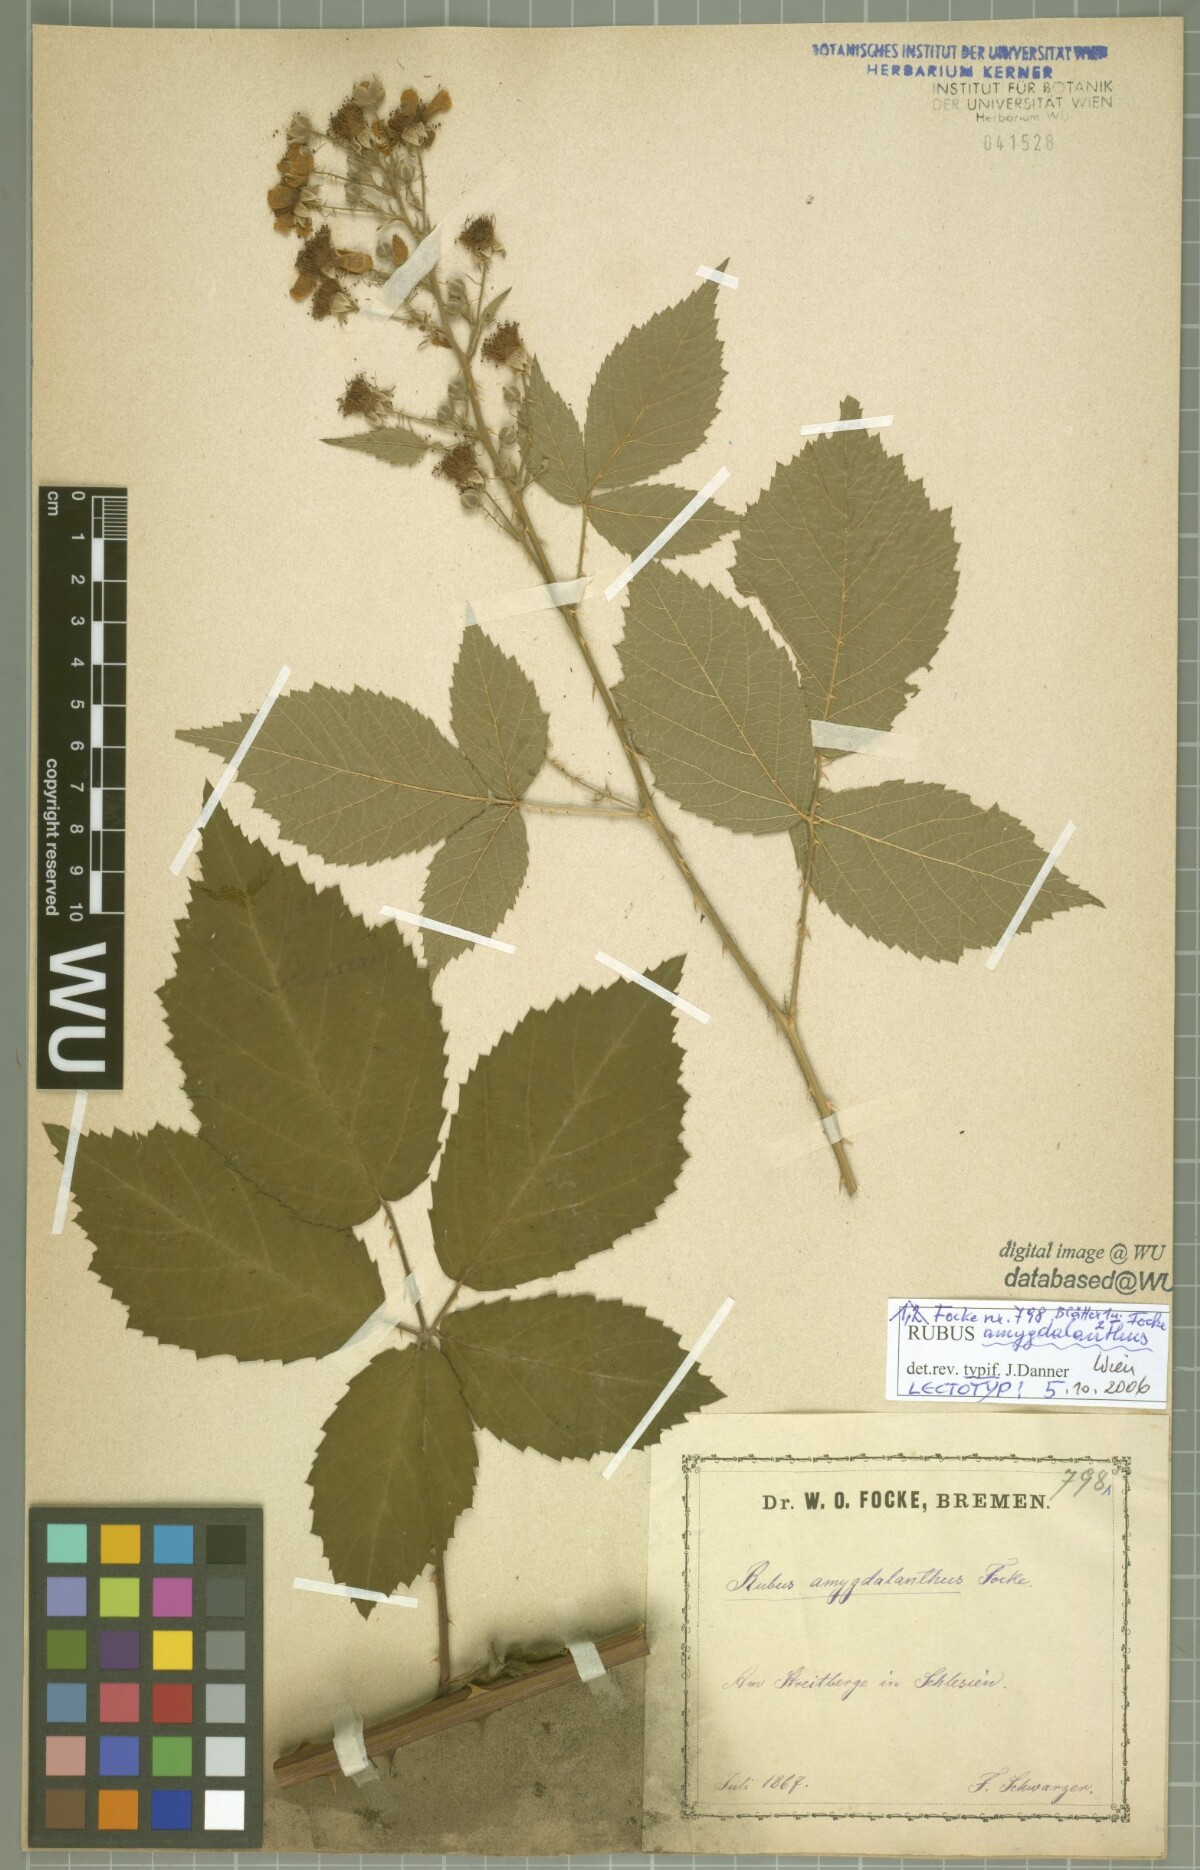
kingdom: Plantae
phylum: Tracheophyta
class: Magnoliopsida
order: Rosales
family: Rosaceae
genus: Rubus
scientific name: Rubus amygdalanthus
